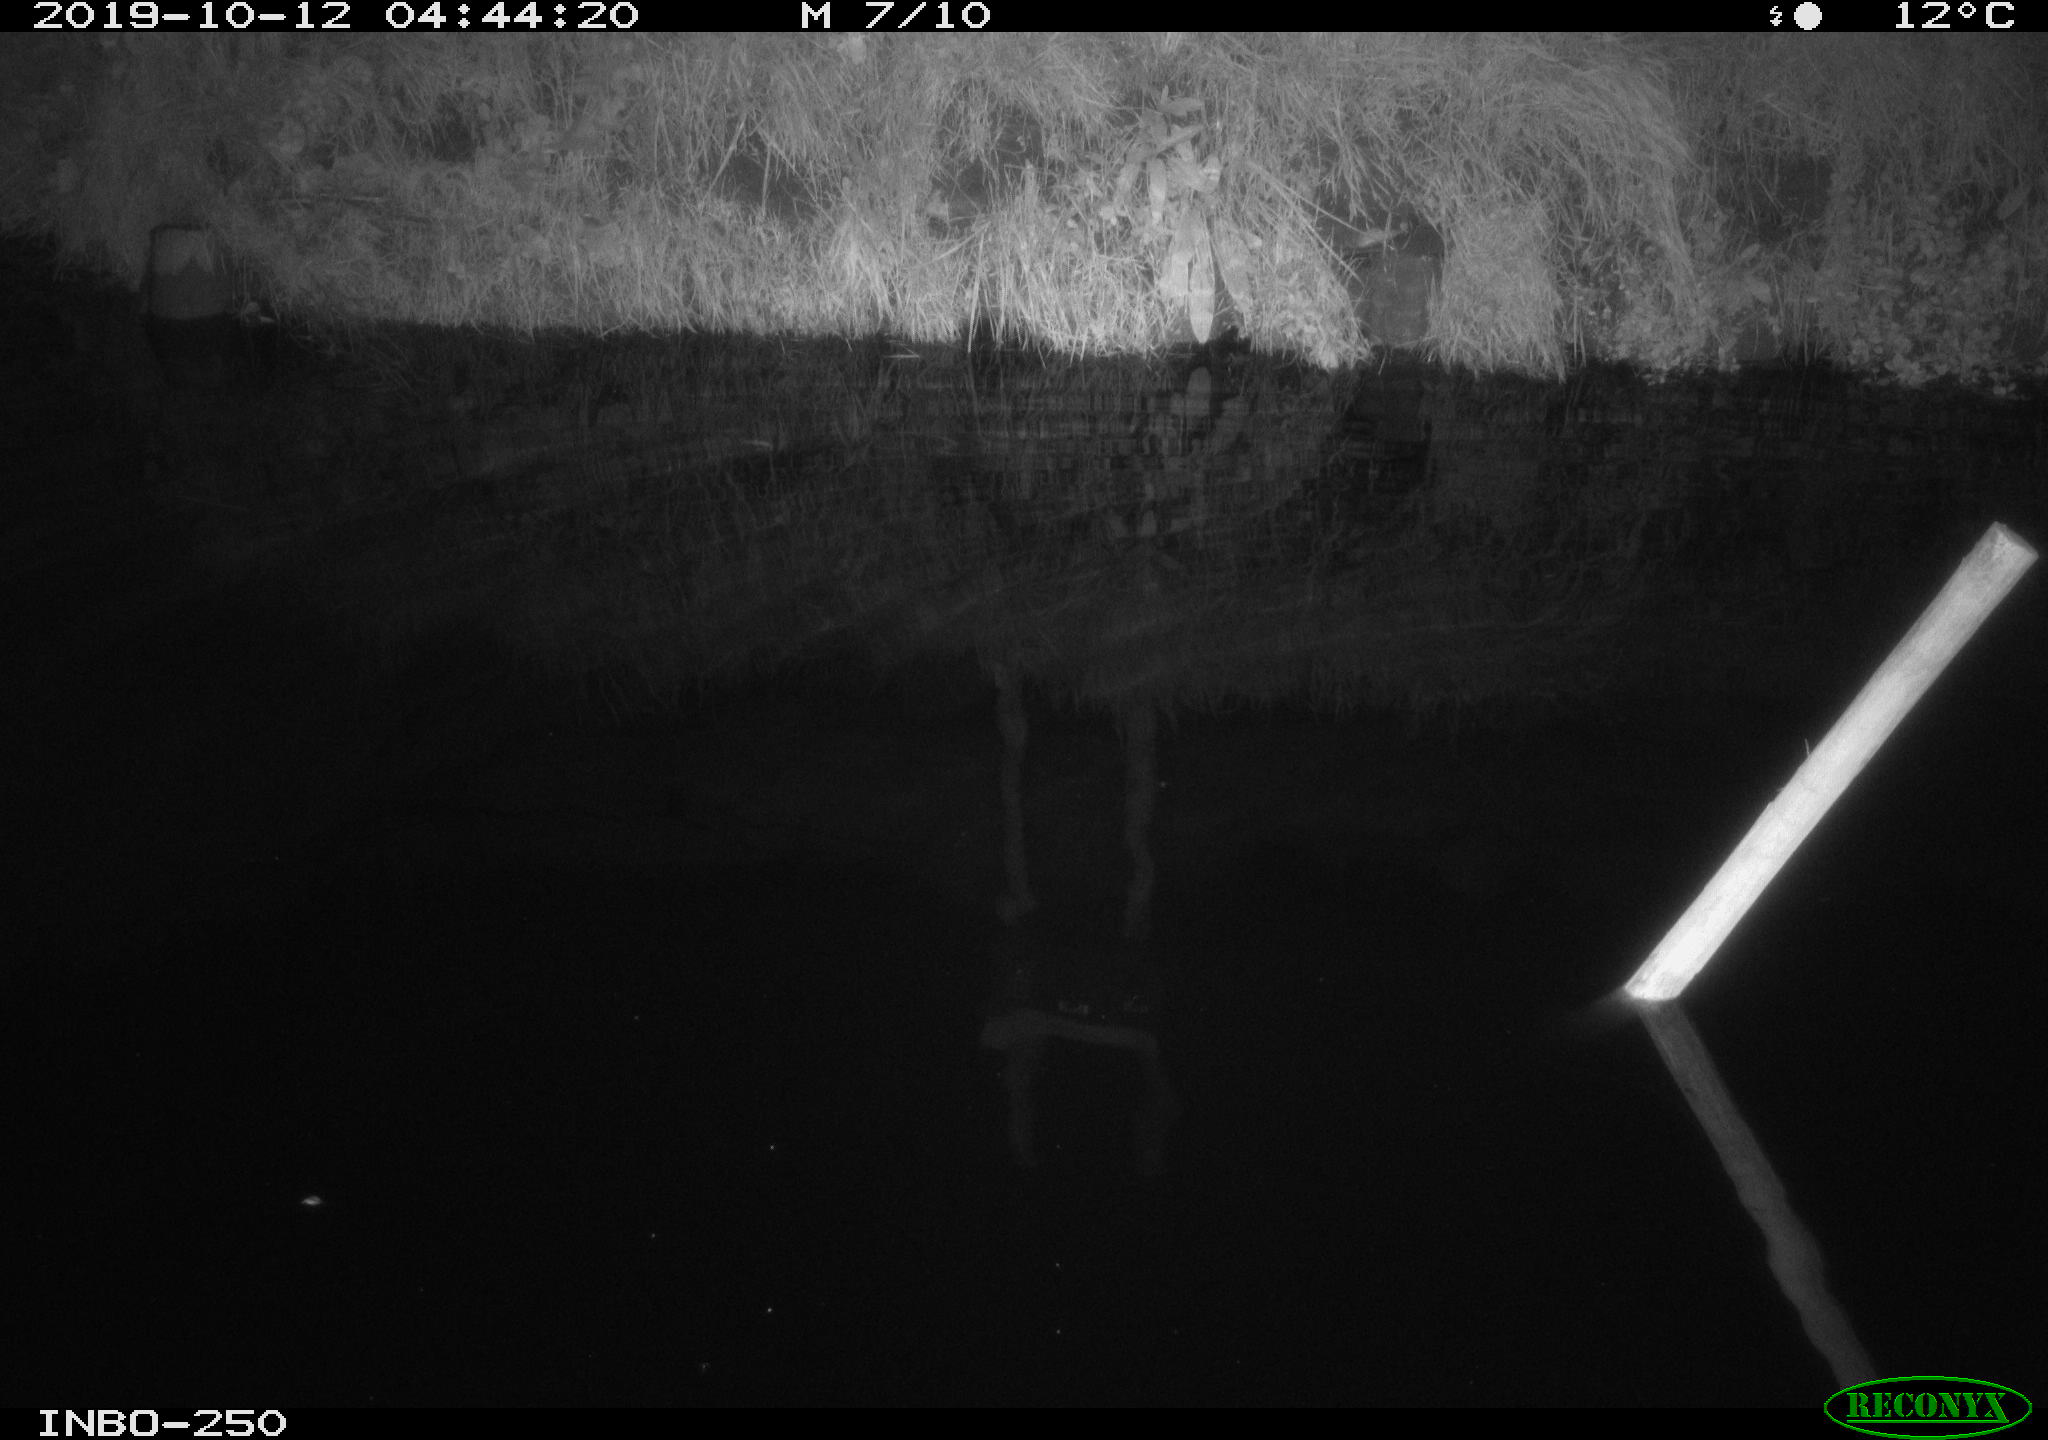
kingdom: Animalia
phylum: Chordata
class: Aves
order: Anseriformes
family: Anatidae
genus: Anas
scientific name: Anas platyrhynchos
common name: Mallard
